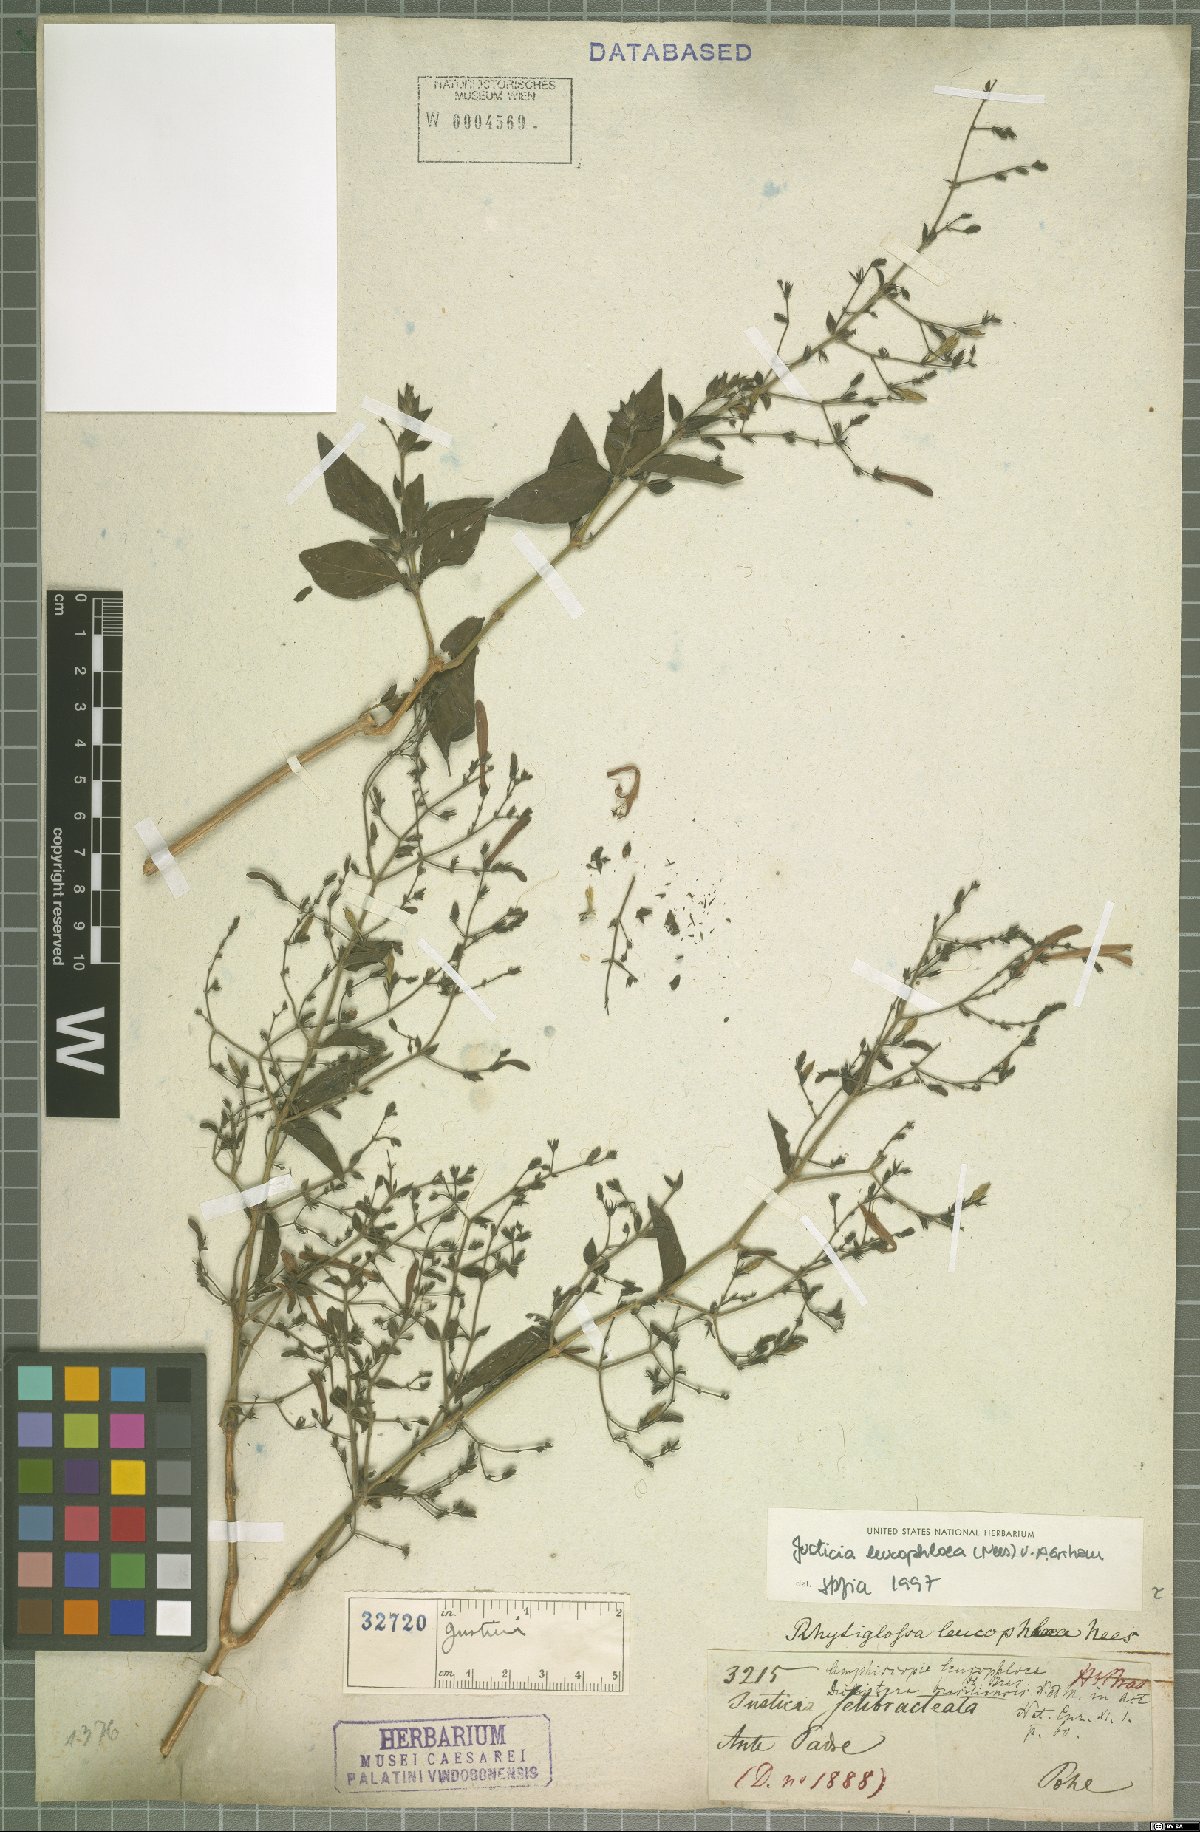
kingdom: Plantae
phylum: Tracheophyta
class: Magnoliopsida
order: Lamiales
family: Acanthaceae
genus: Justicia
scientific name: Justicia xipotensis
